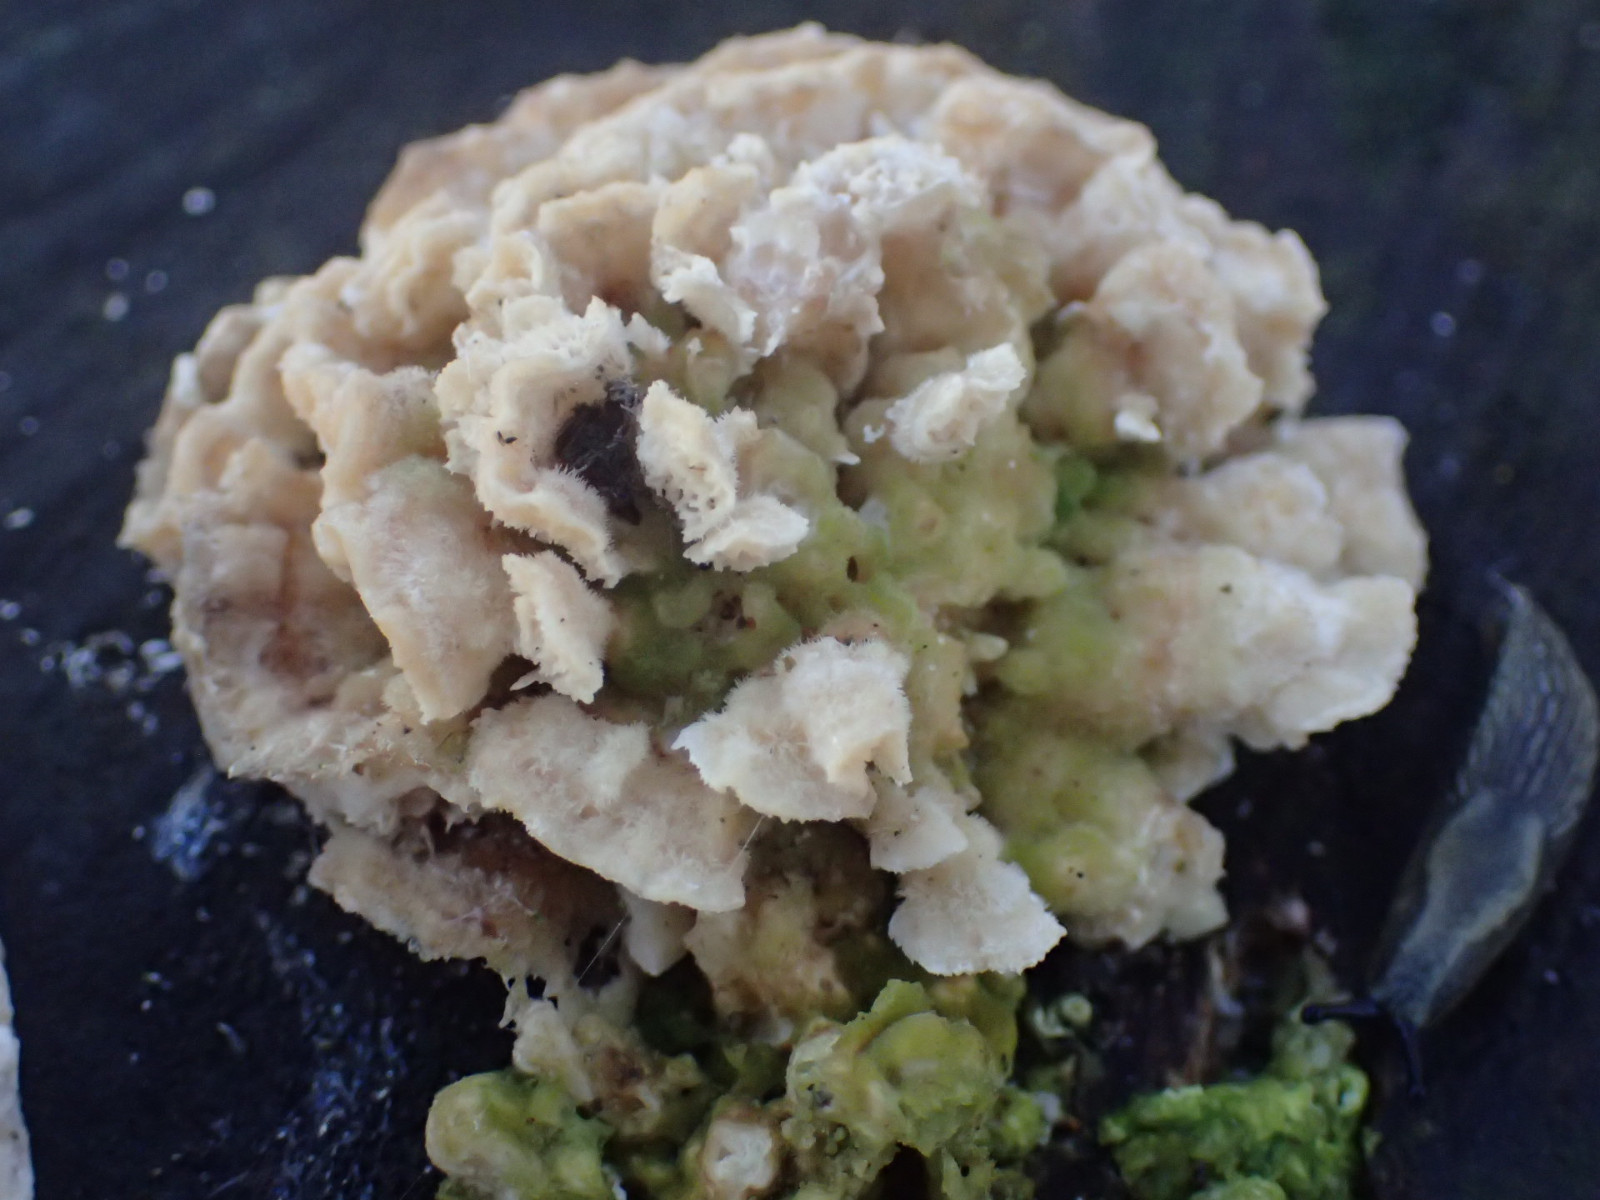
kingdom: Fungi
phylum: Basidiomycota
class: Agaricomycetes
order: Polyporales
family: Polyporaceae
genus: Trametes
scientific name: Trametes
